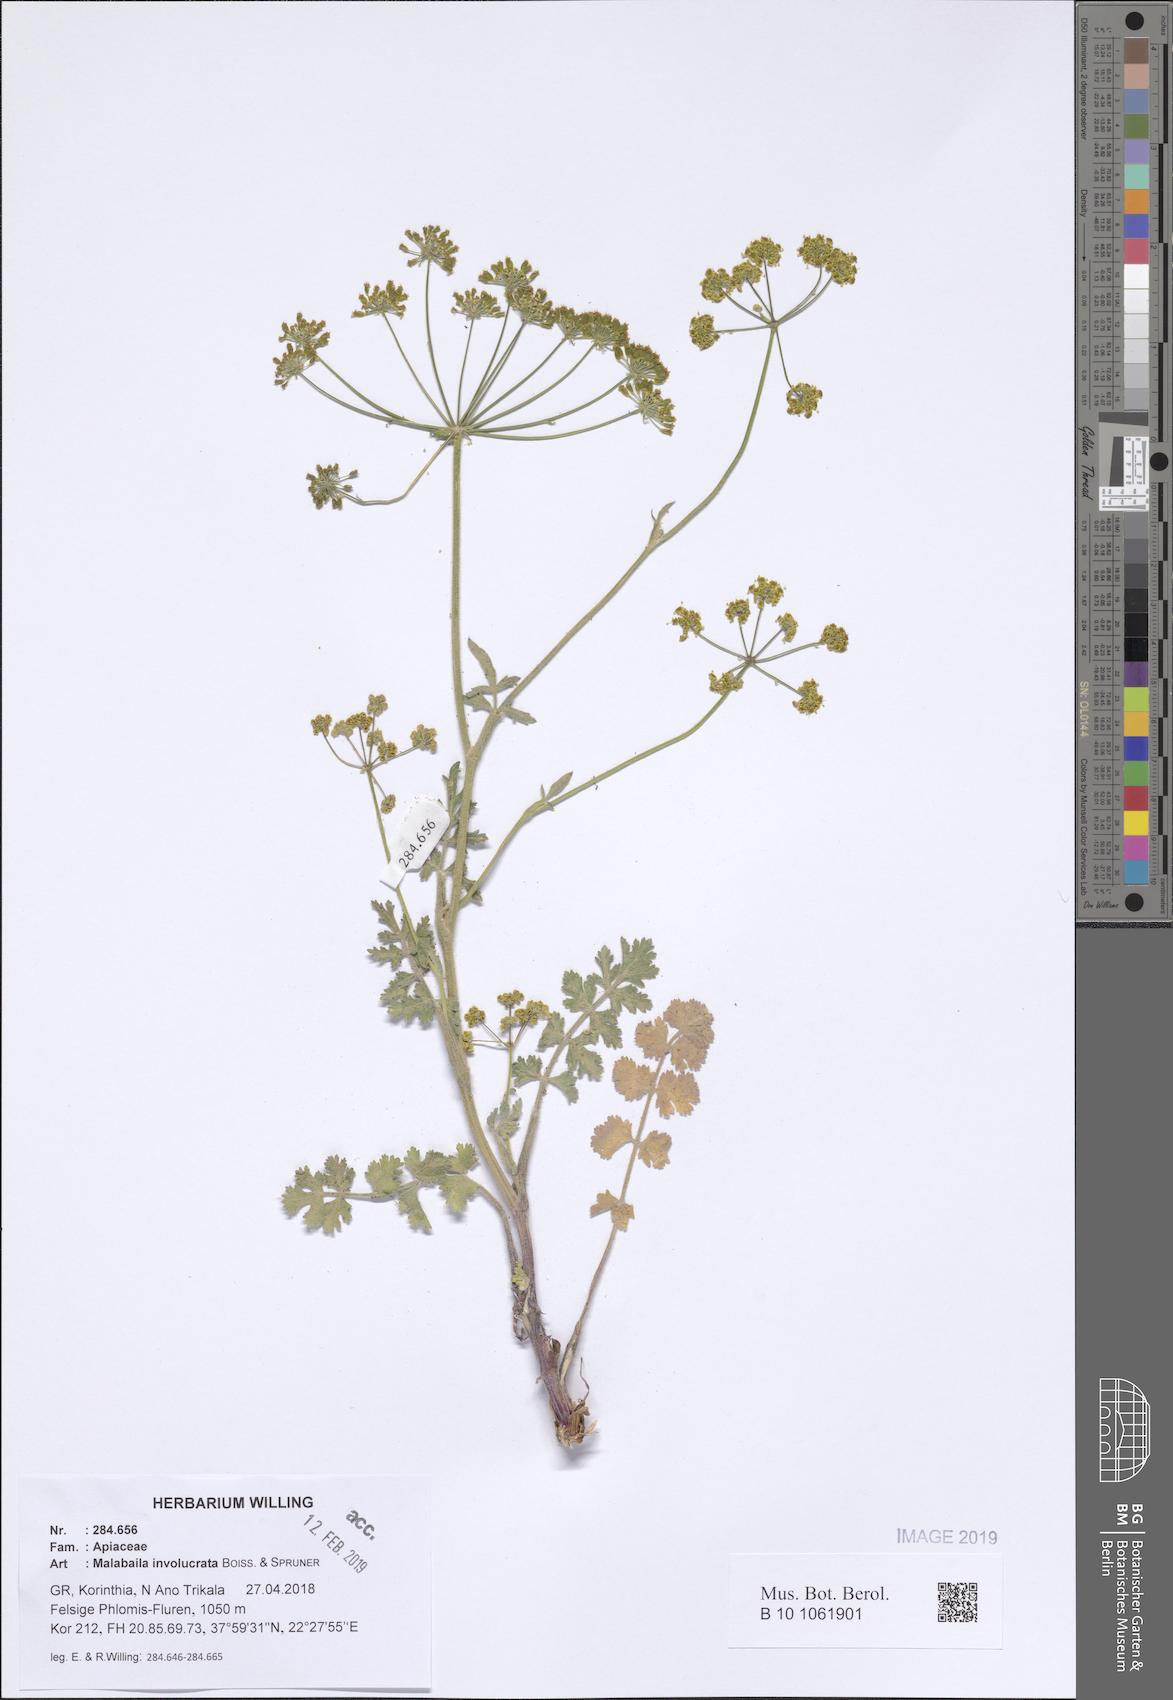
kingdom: Plantae
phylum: Tracheophyta
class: Magnoliopsida
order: Apiales
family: Apiaceae
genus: Leiotulus
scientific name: Leiotulus involucratus
